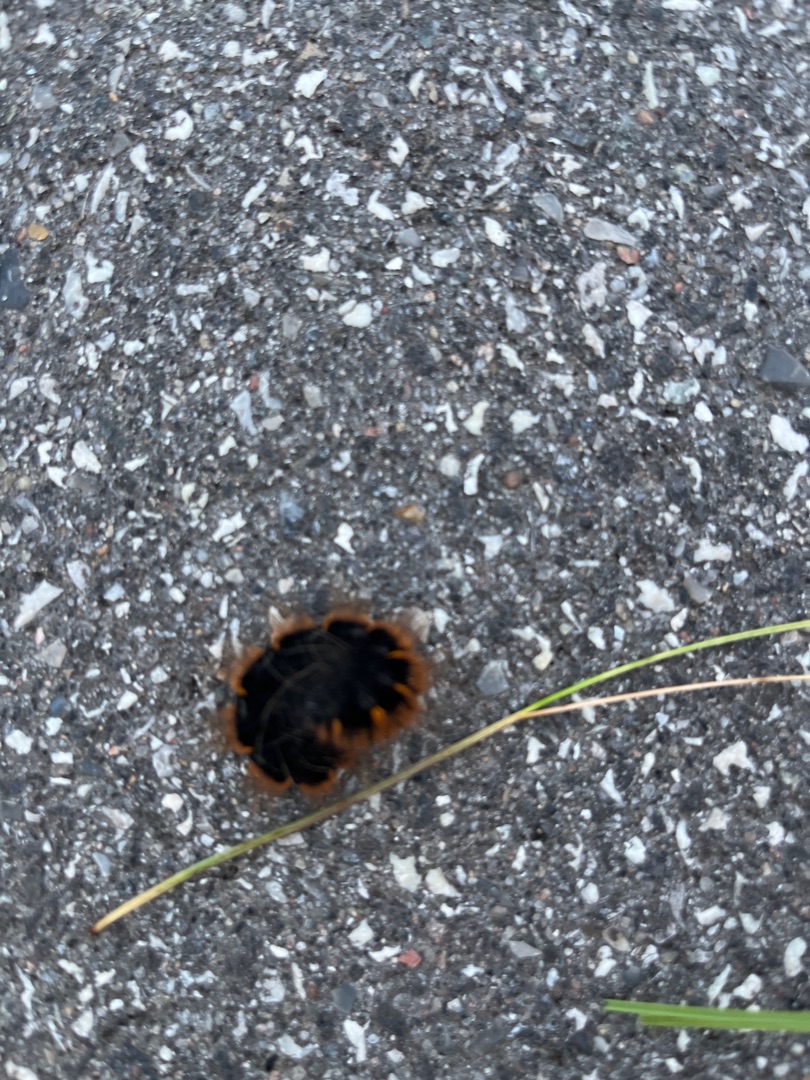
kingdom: Animalia
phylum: Arthropoda
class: Insecta
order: Lepidoptera
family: Lasiocampidae
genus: Macrothylacia
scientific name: Macrothylacia rubi
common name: Brombærspinder
